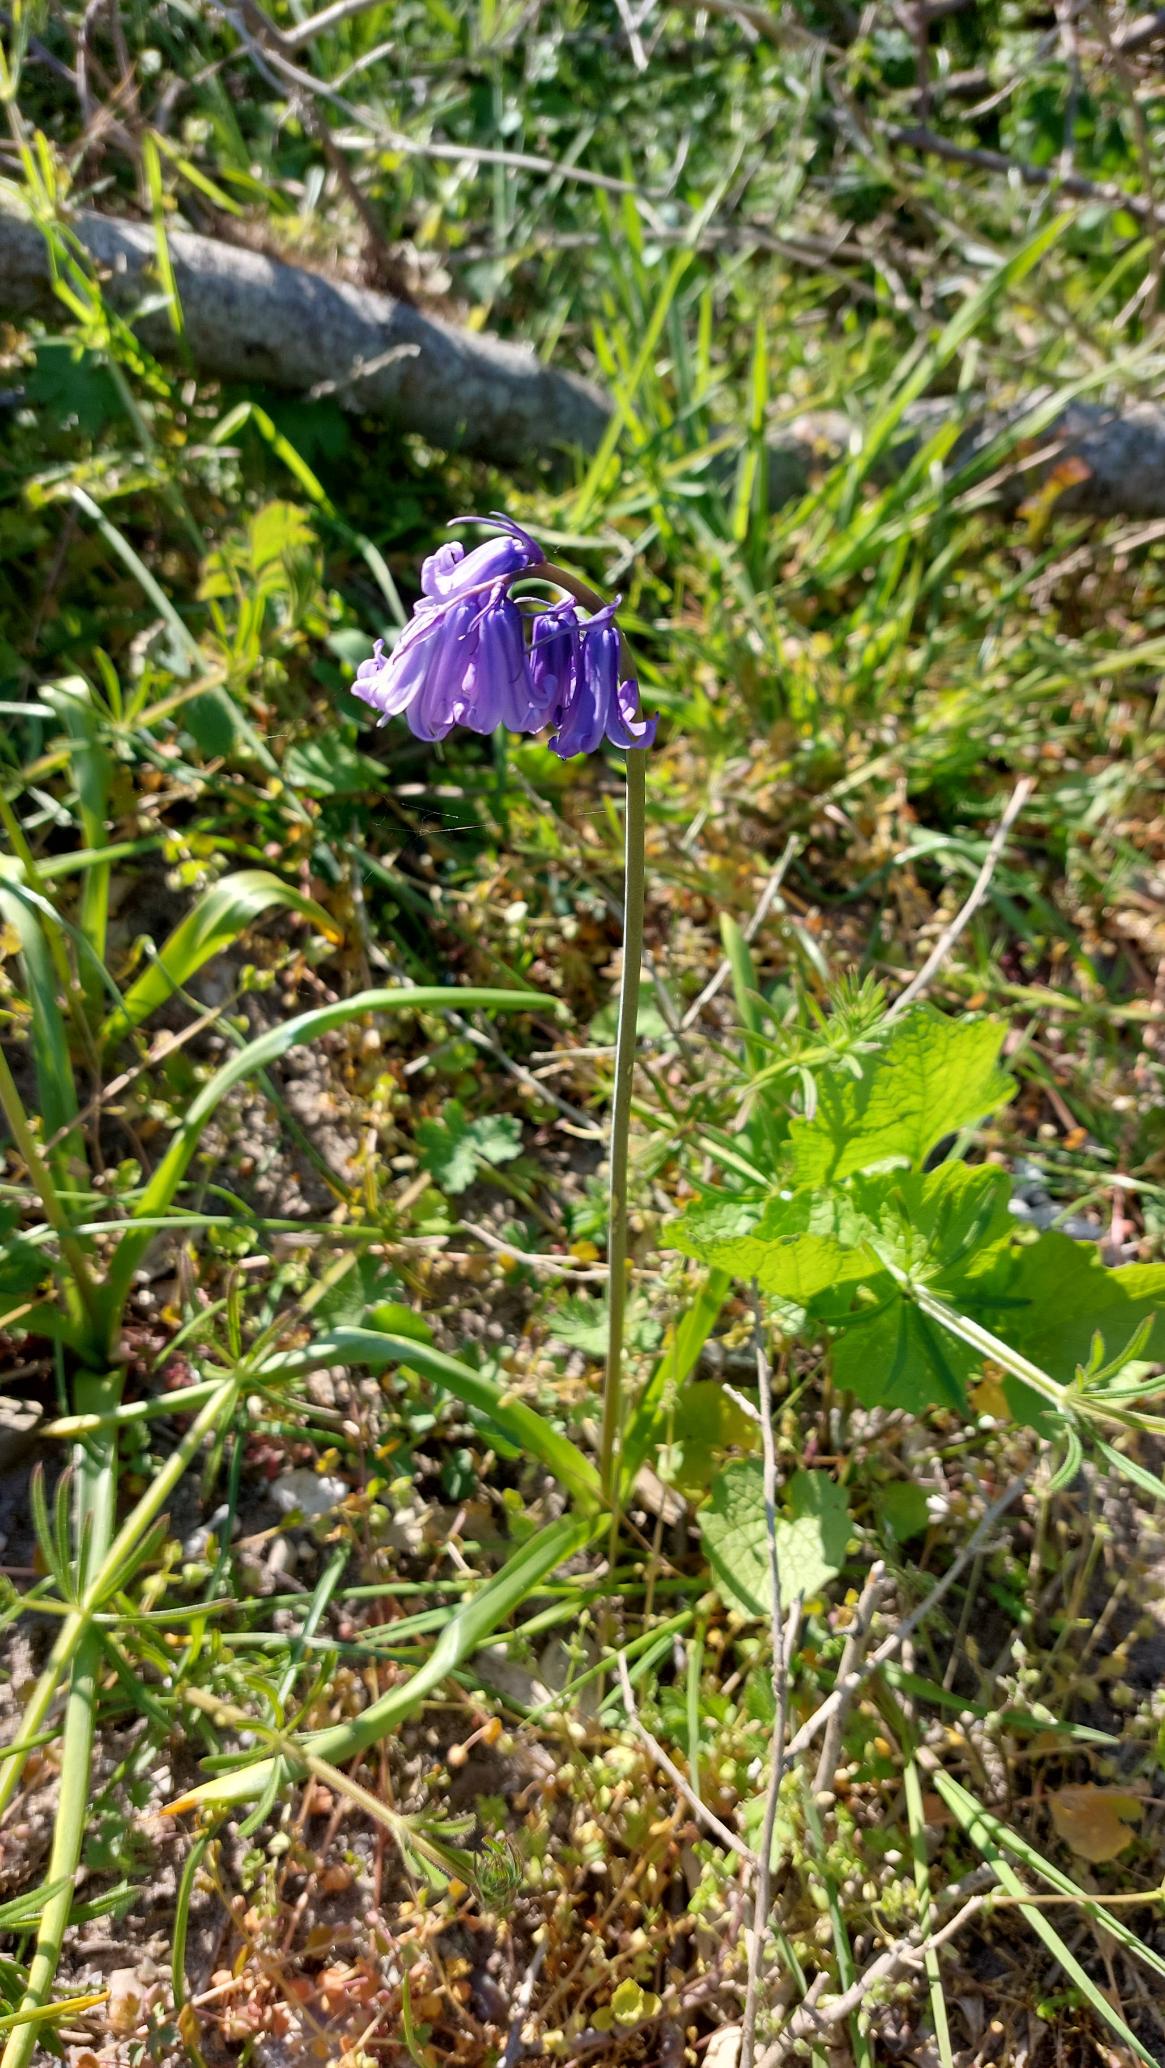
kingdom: Plantae
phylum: Tracheophyta
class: Liliopsida
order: Asparagales
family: Asparagaceae
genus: Hyacinthoides
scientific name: Hyacinthoides massartiana
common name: Hybrid-klokkeskilla
